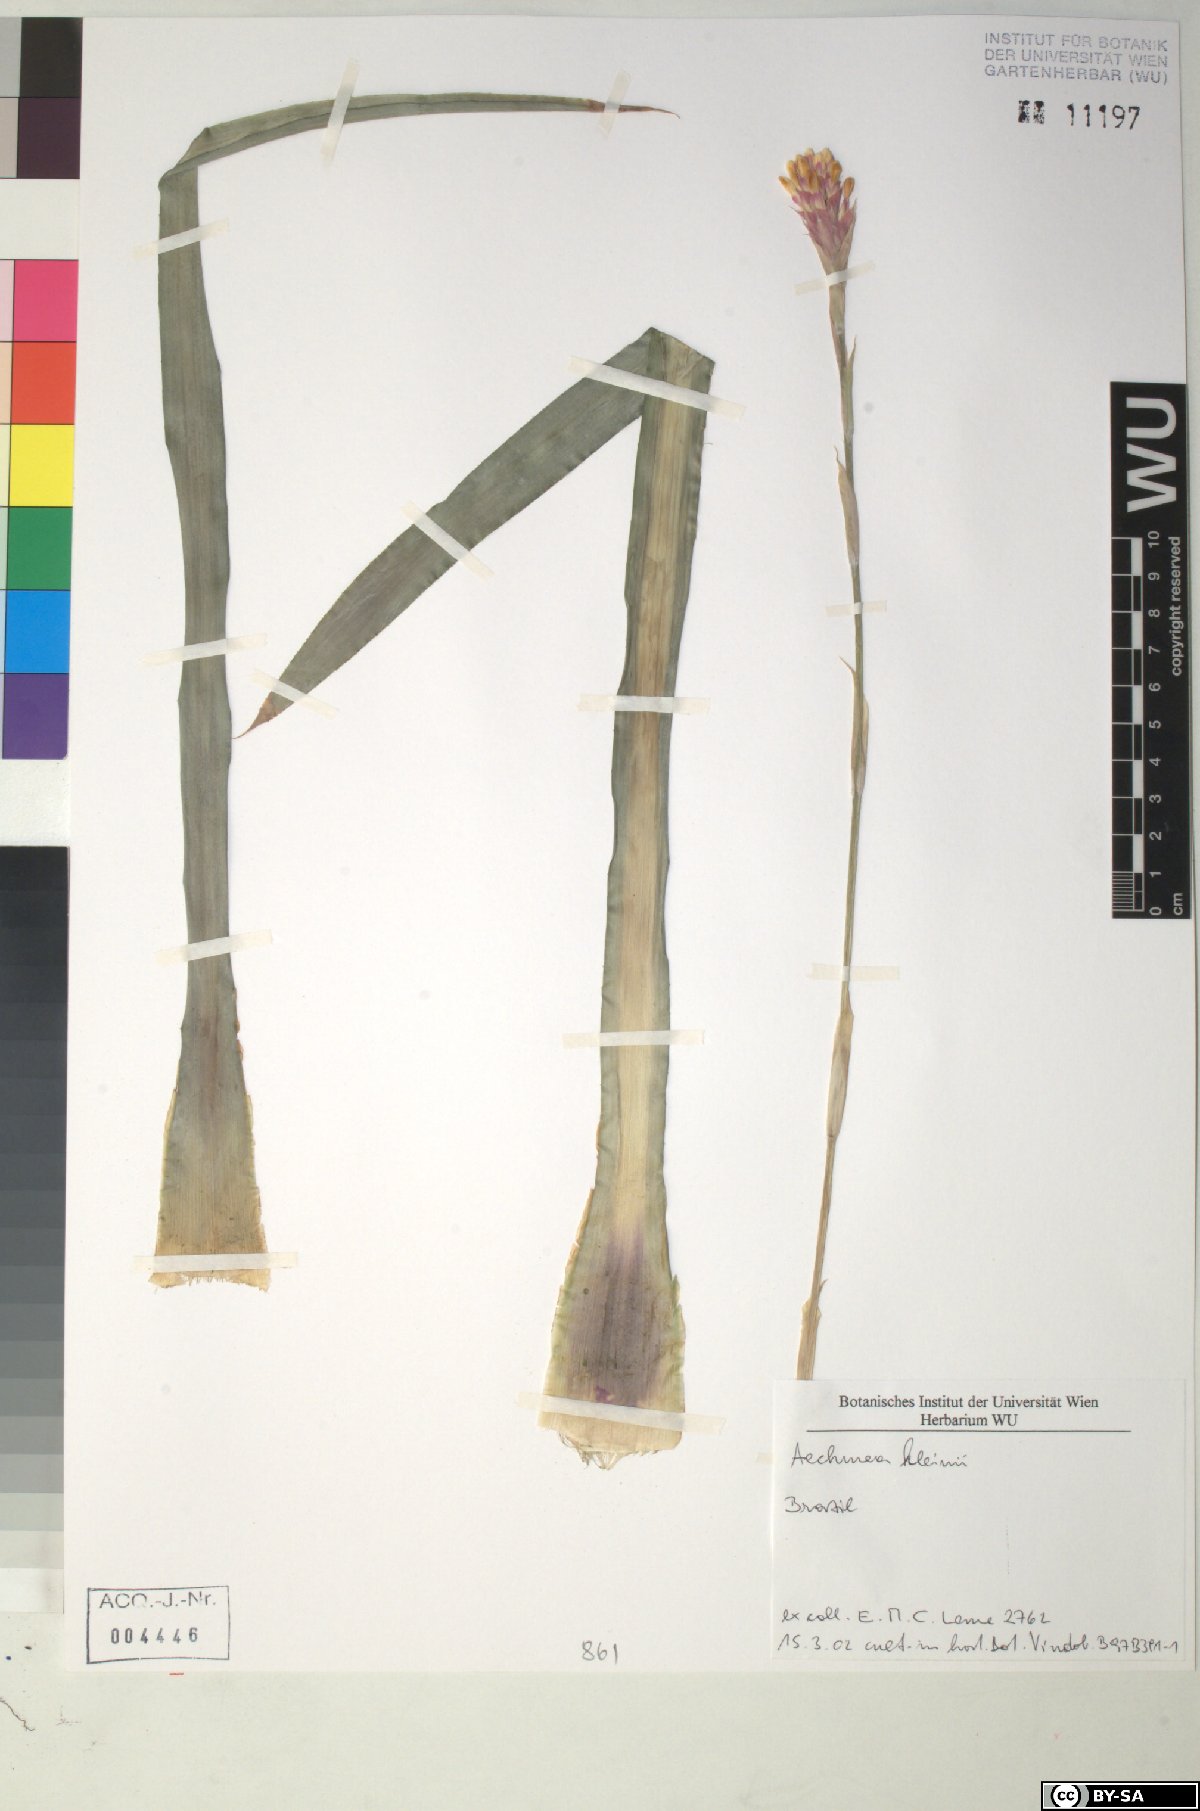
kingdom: Plantae
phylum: Tracheophyta
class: Liliopsida
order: Poales
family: Bromeliaceae
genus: Aechmea
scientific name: Aechmea
